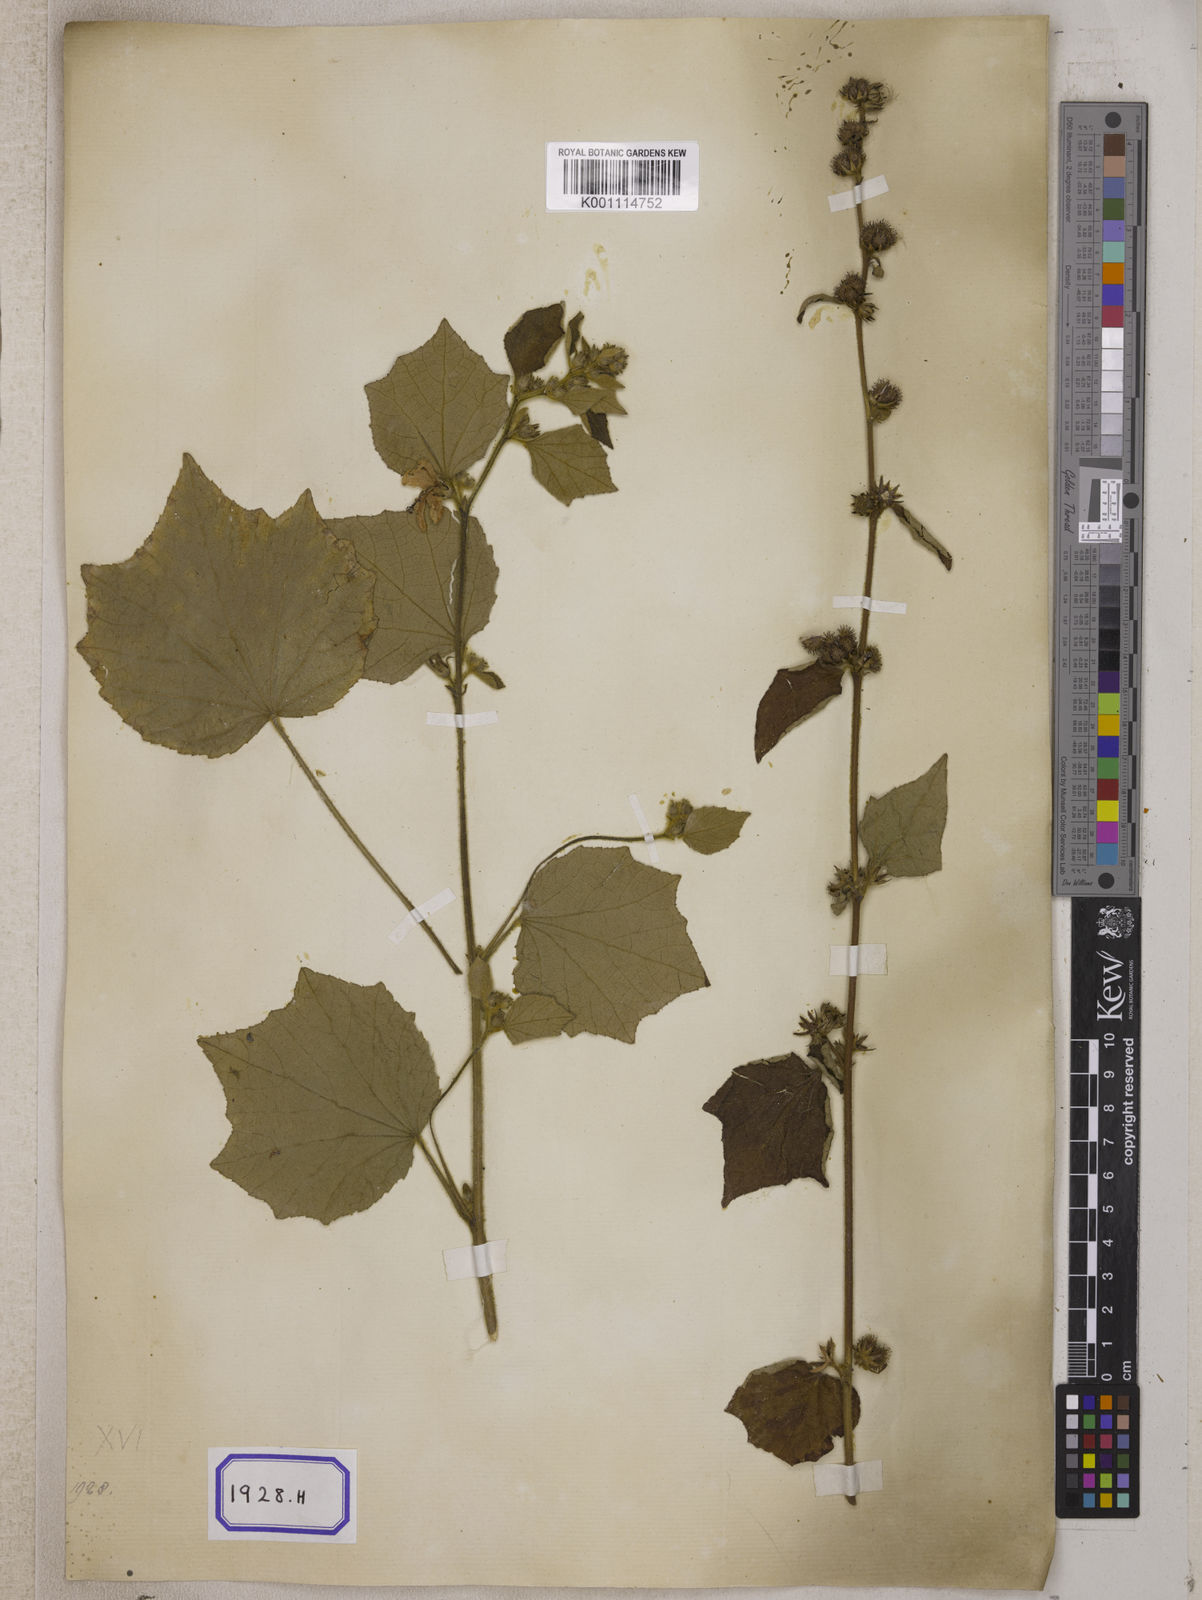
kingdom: Plantae
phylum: Tracheophyta
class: Magnoliopsida
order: Malvales
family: Malvaceae
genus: Urena
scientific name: Urena lobata
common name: Caesarweed
